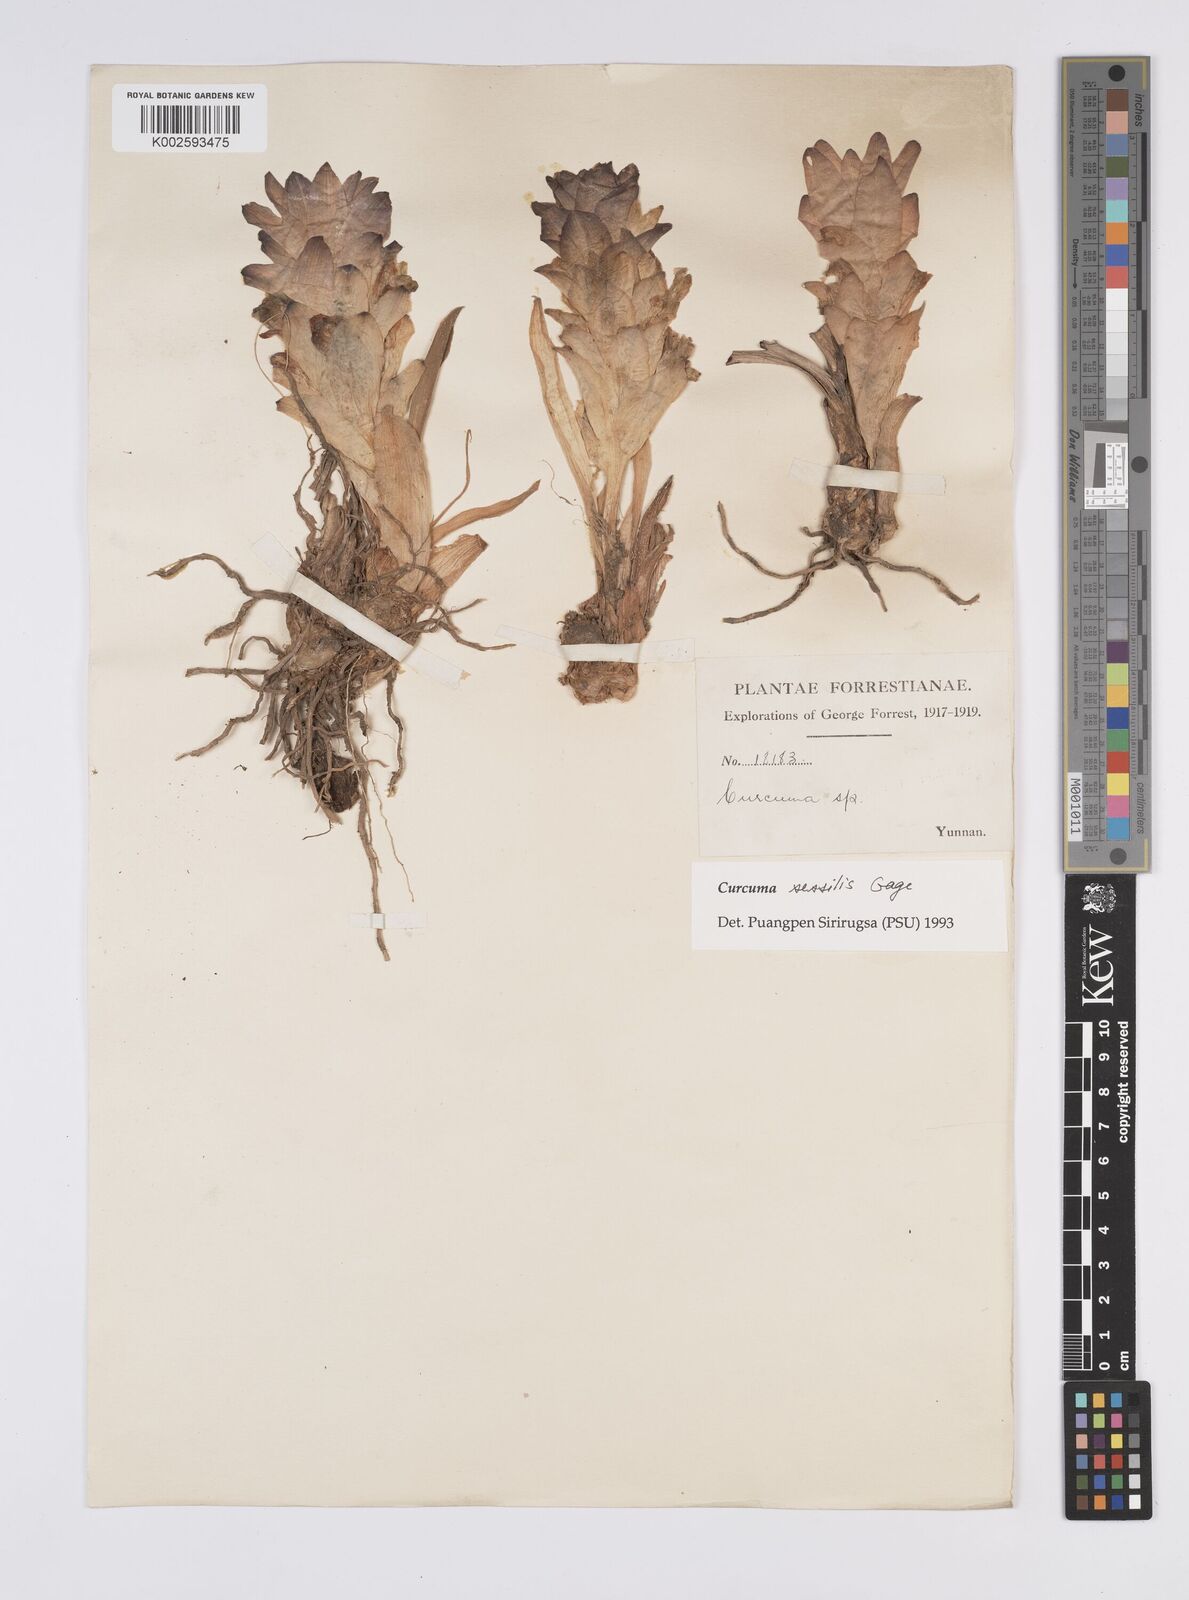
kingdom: Plantae
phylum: Tracheophyta
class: Liliopsida
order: Zingiberales
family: Zingiberaceae
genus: Curcuma
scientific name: Curcuma sessilis
